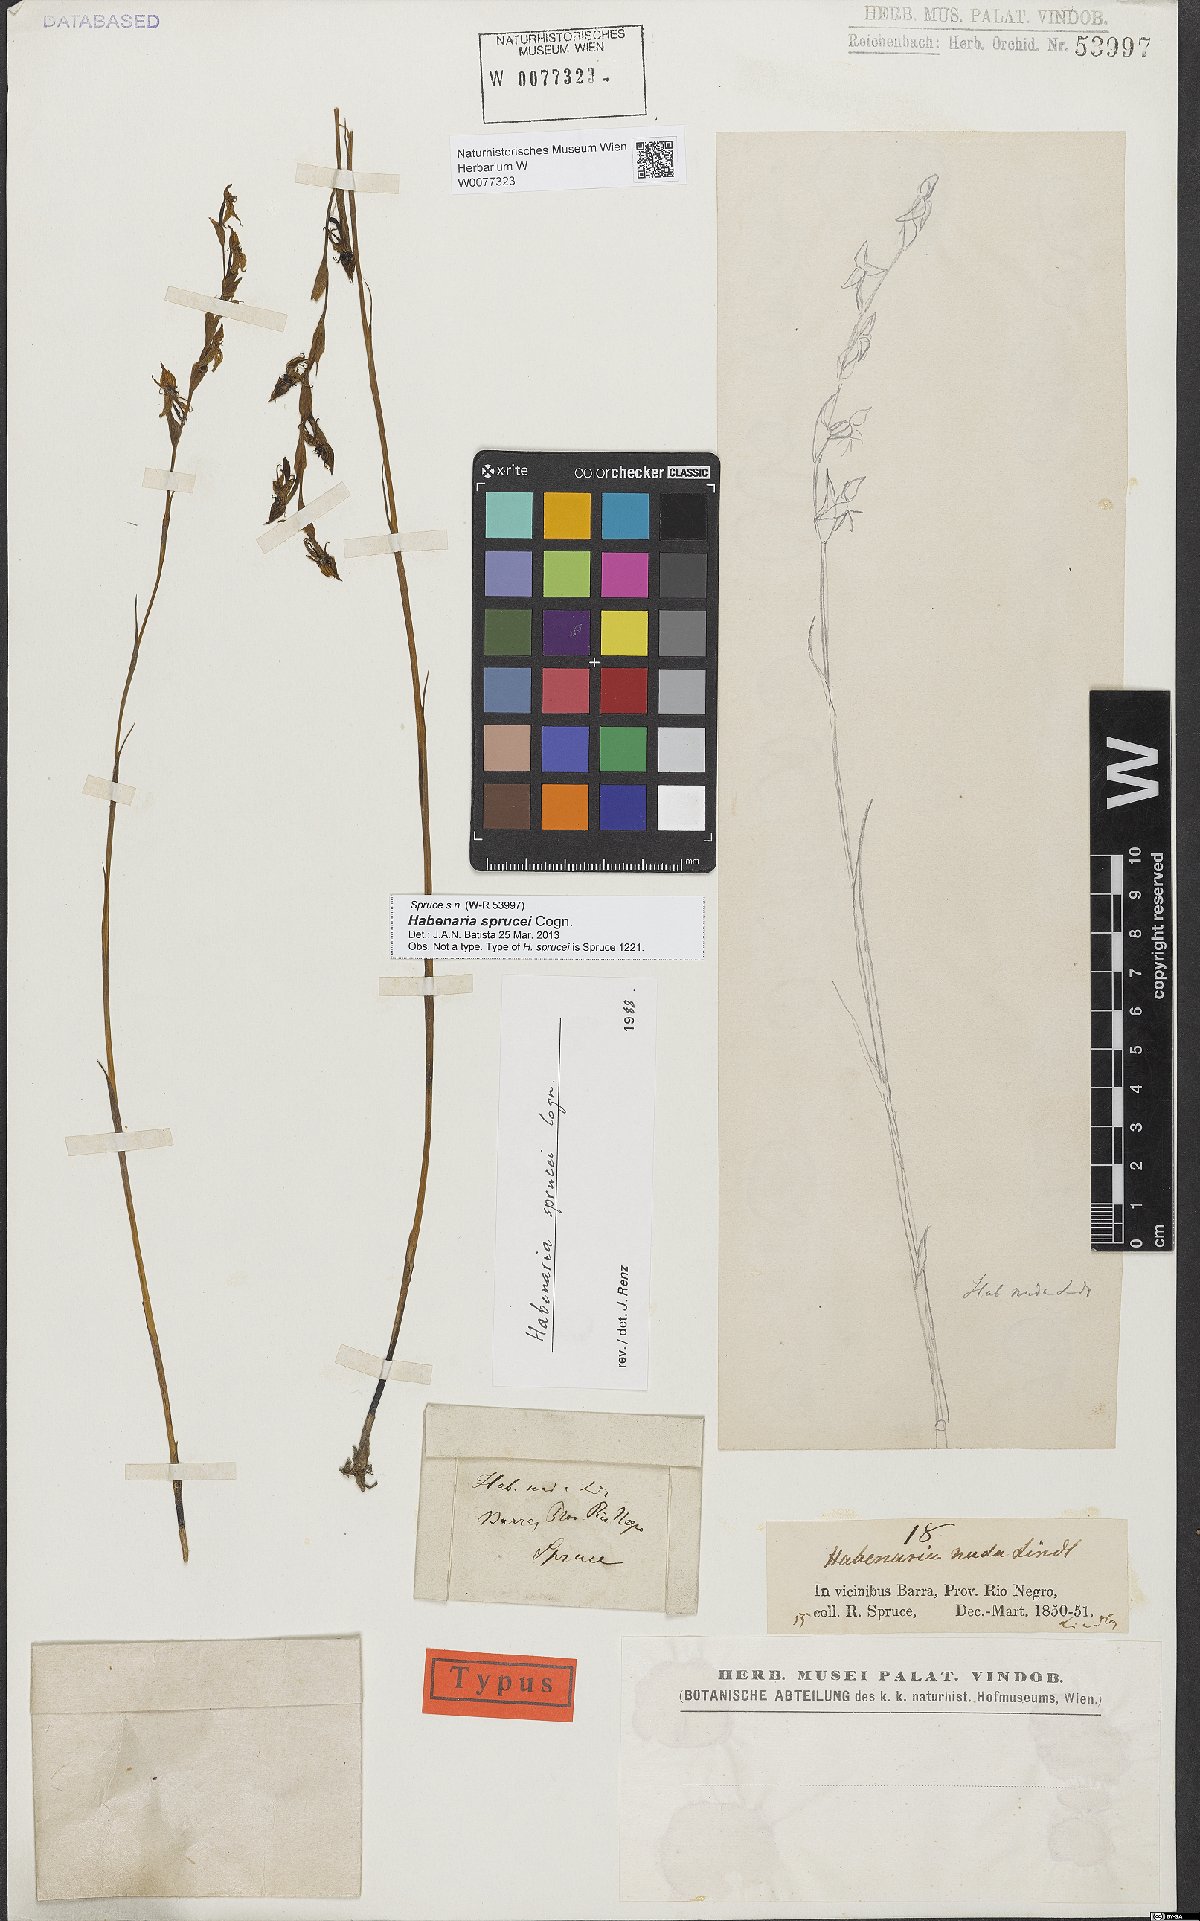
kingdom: Plantae
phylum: Tracheophyta
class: Liliopsida
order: Asparagales
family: Orchidaceae
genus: Habenaria
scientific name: Habenaria sprucei
